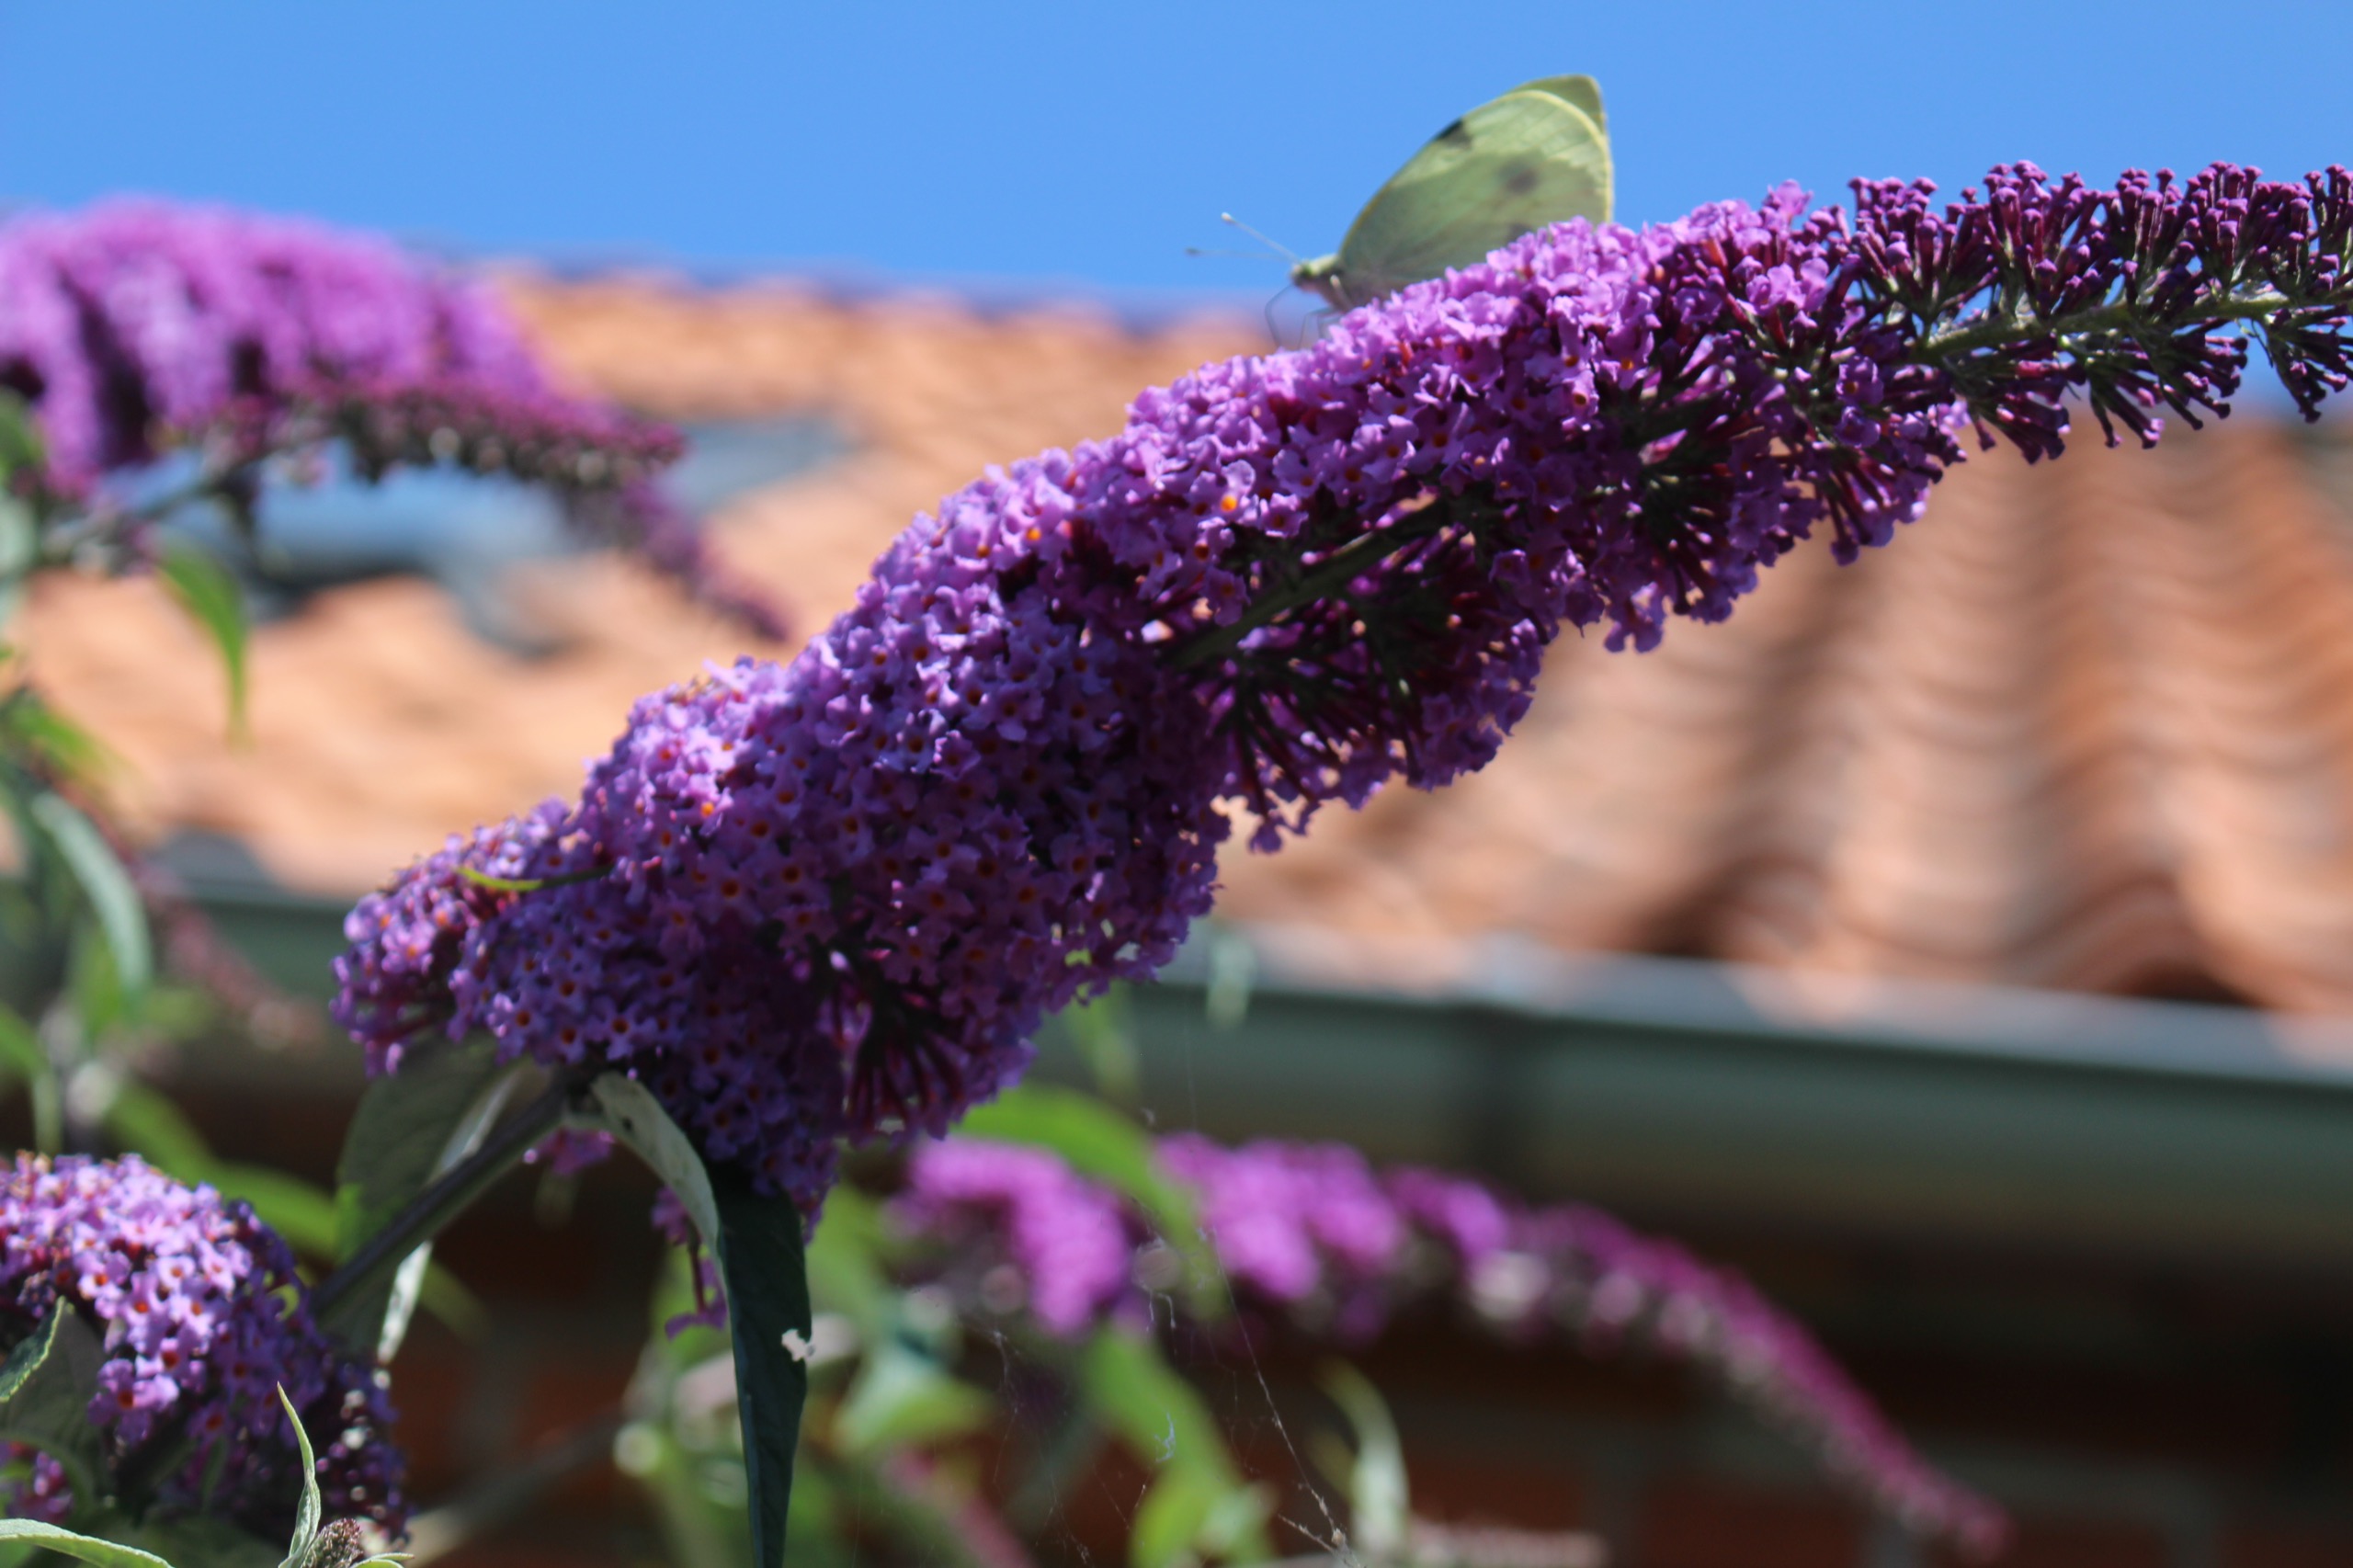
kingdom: Animalia
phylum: Arthropoda
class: Insecta
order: Lepidoptera
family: Pieridae
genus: Pieris
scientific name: Pieris brassicae
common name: Stor kålsommerfugl
